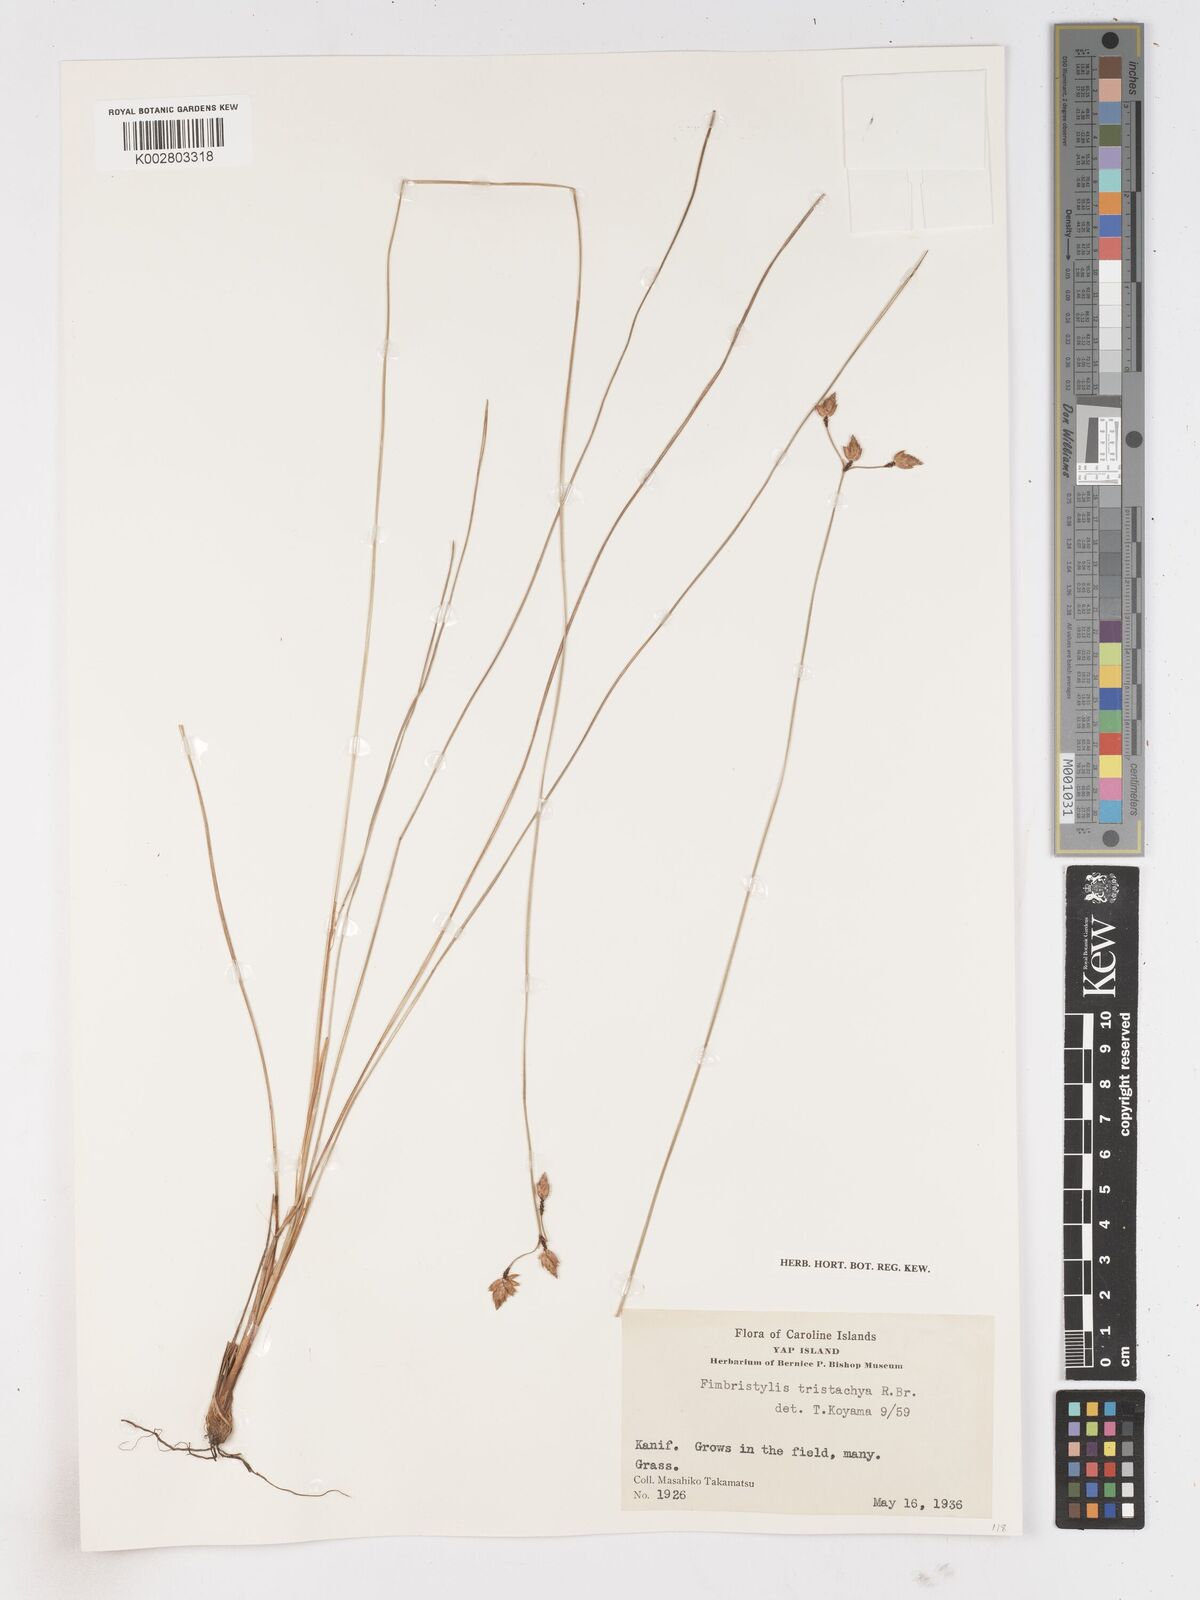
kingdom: Plantae
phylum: Tracheophyta
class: Liliopsida
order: Poales
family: Cyperaceae
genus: Fimbristylis
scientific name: Fimbristylis tristachya
